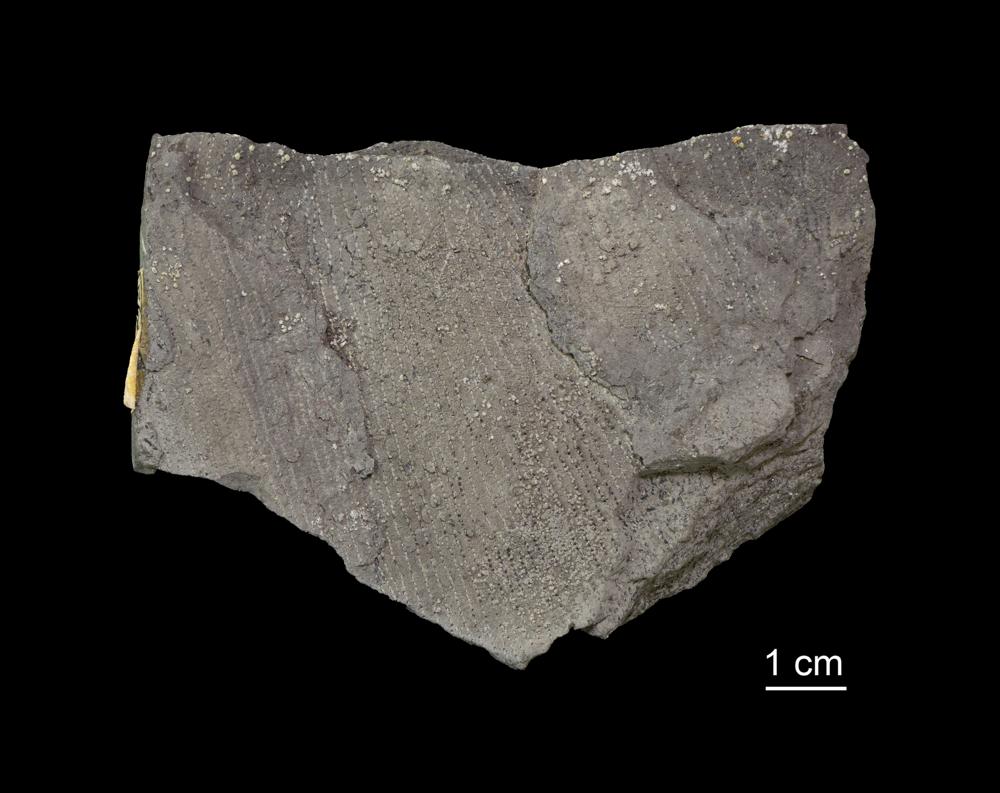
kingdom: Animalia
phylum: Hemichordata
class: Pterobranchia
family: Anisograptidae
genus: Rhabdinopora
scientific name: Rhabdinopora Gorgonia flabelliformis
